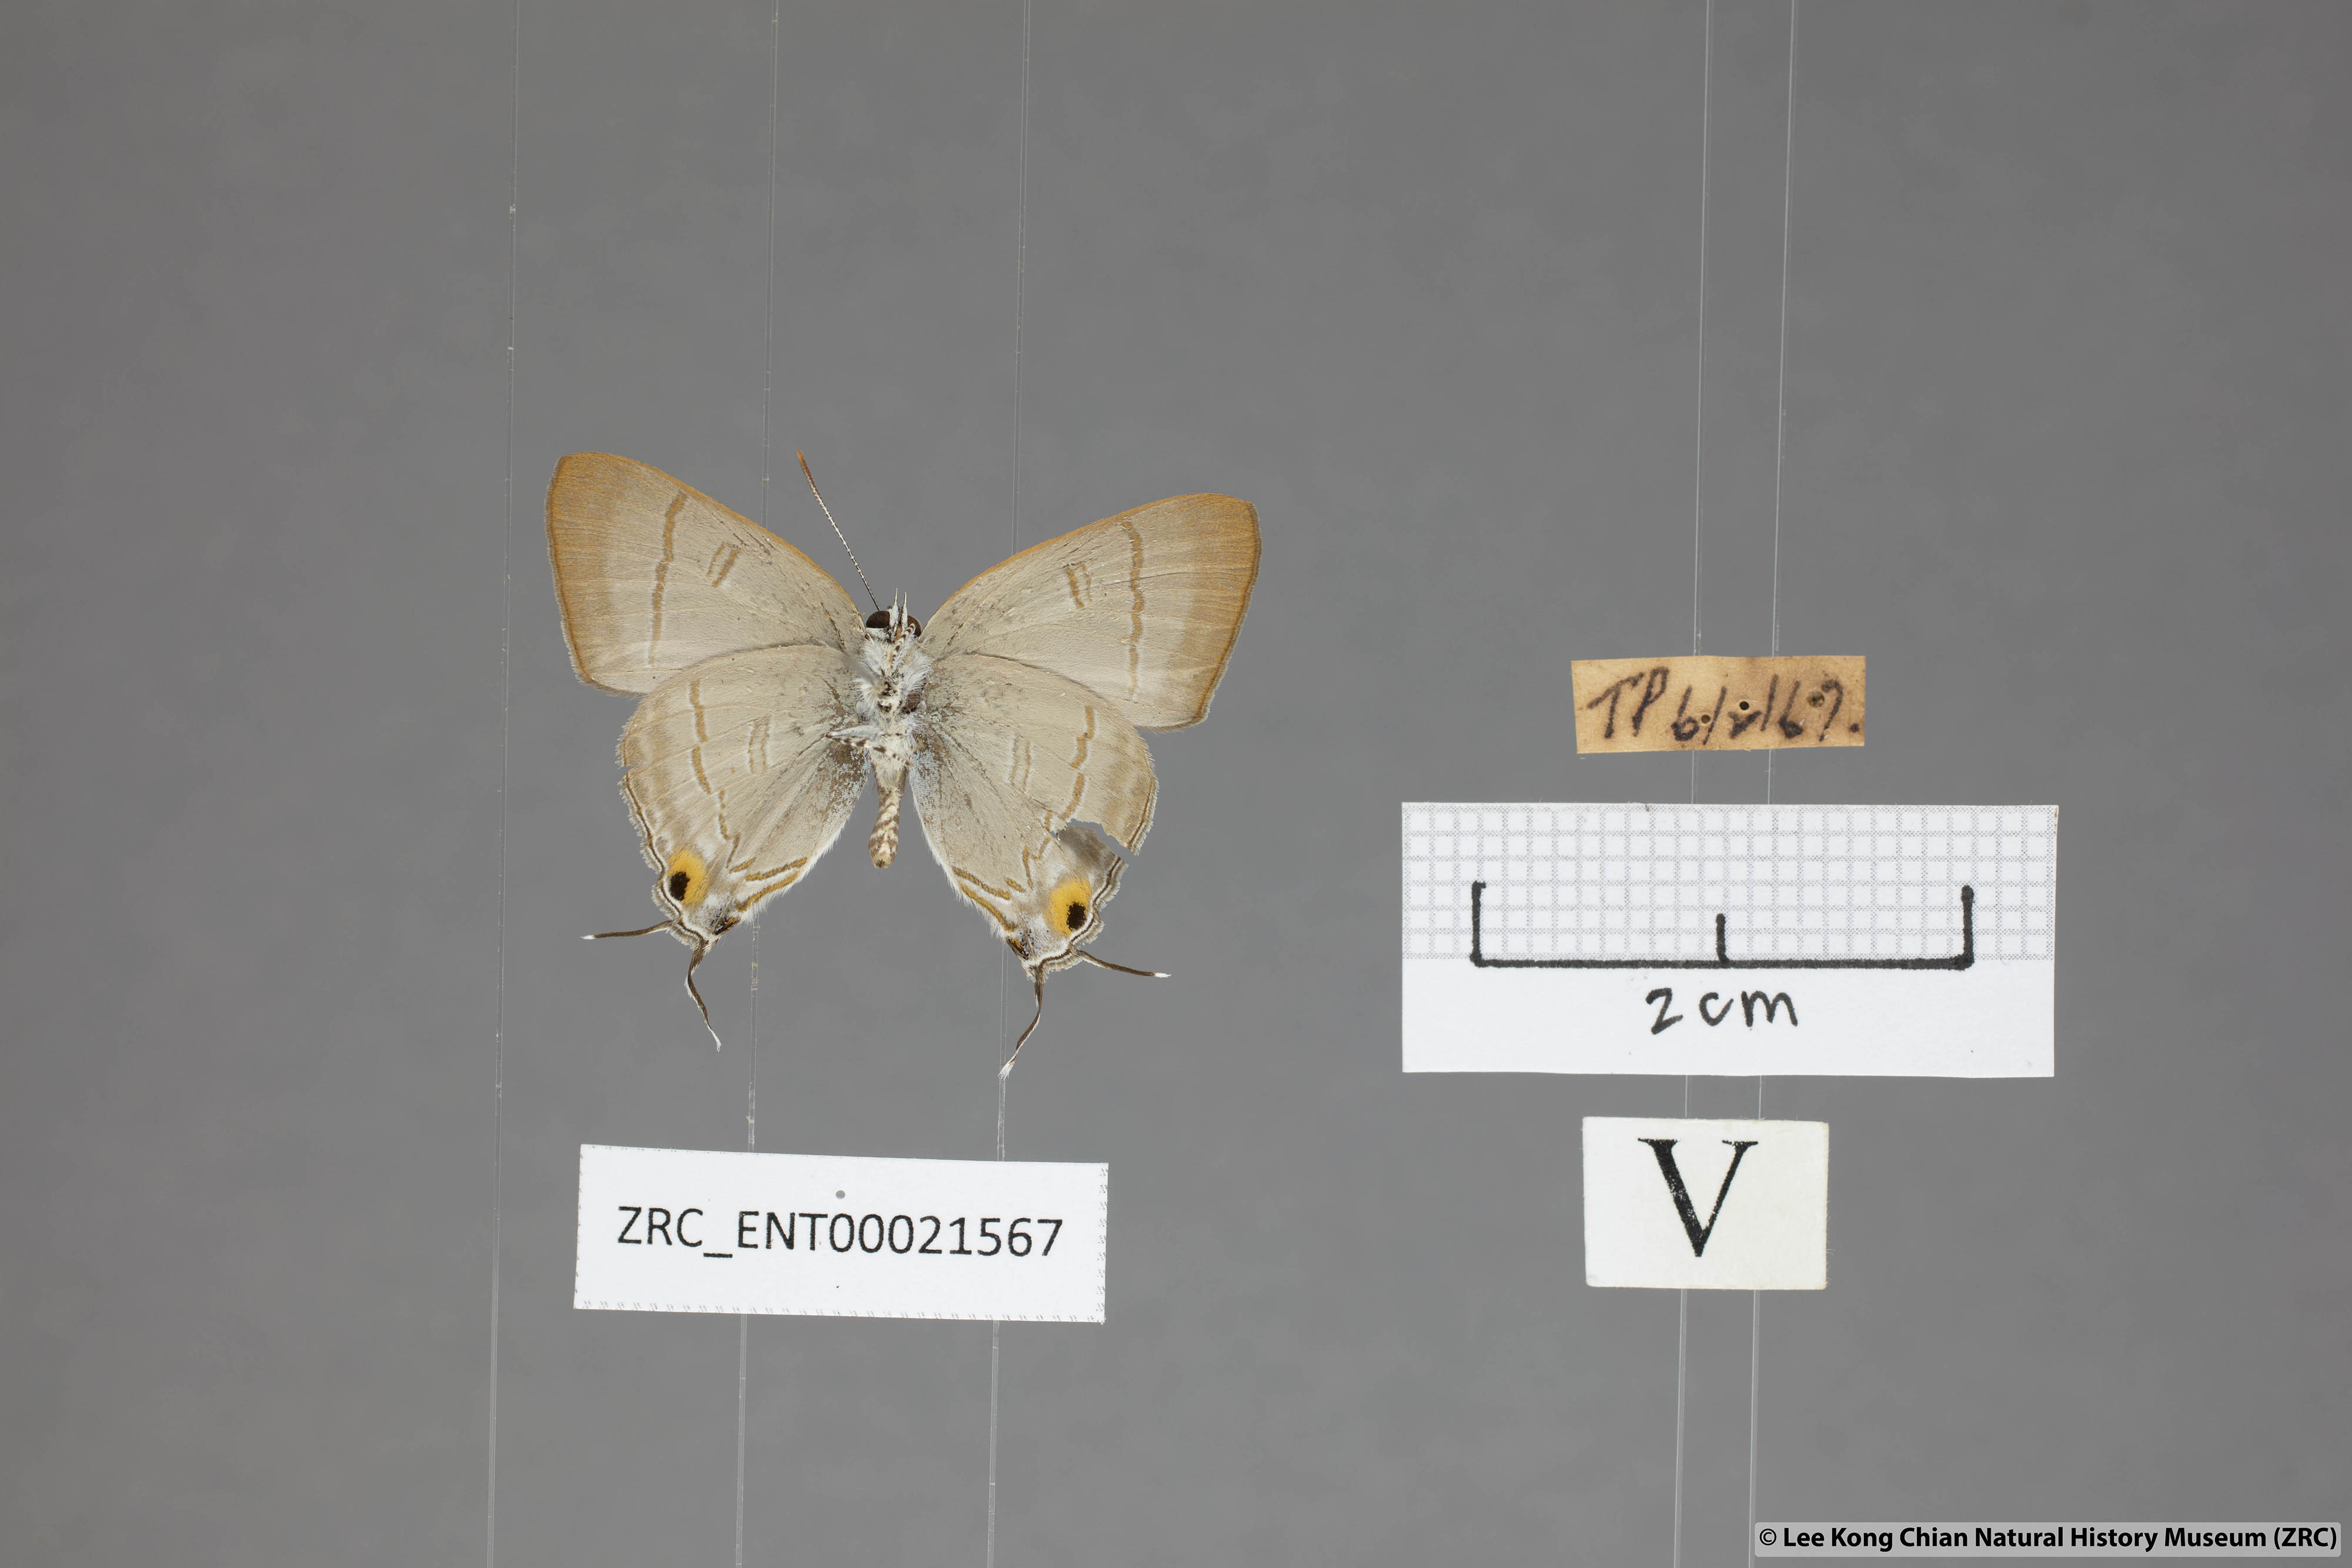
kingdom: Animalia
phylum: Arthropoda
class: Insecta
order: Lepidoptera
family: Lycaenidae
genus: Hypolycaena
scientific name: Hypolycaena erylus
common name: Common tit
